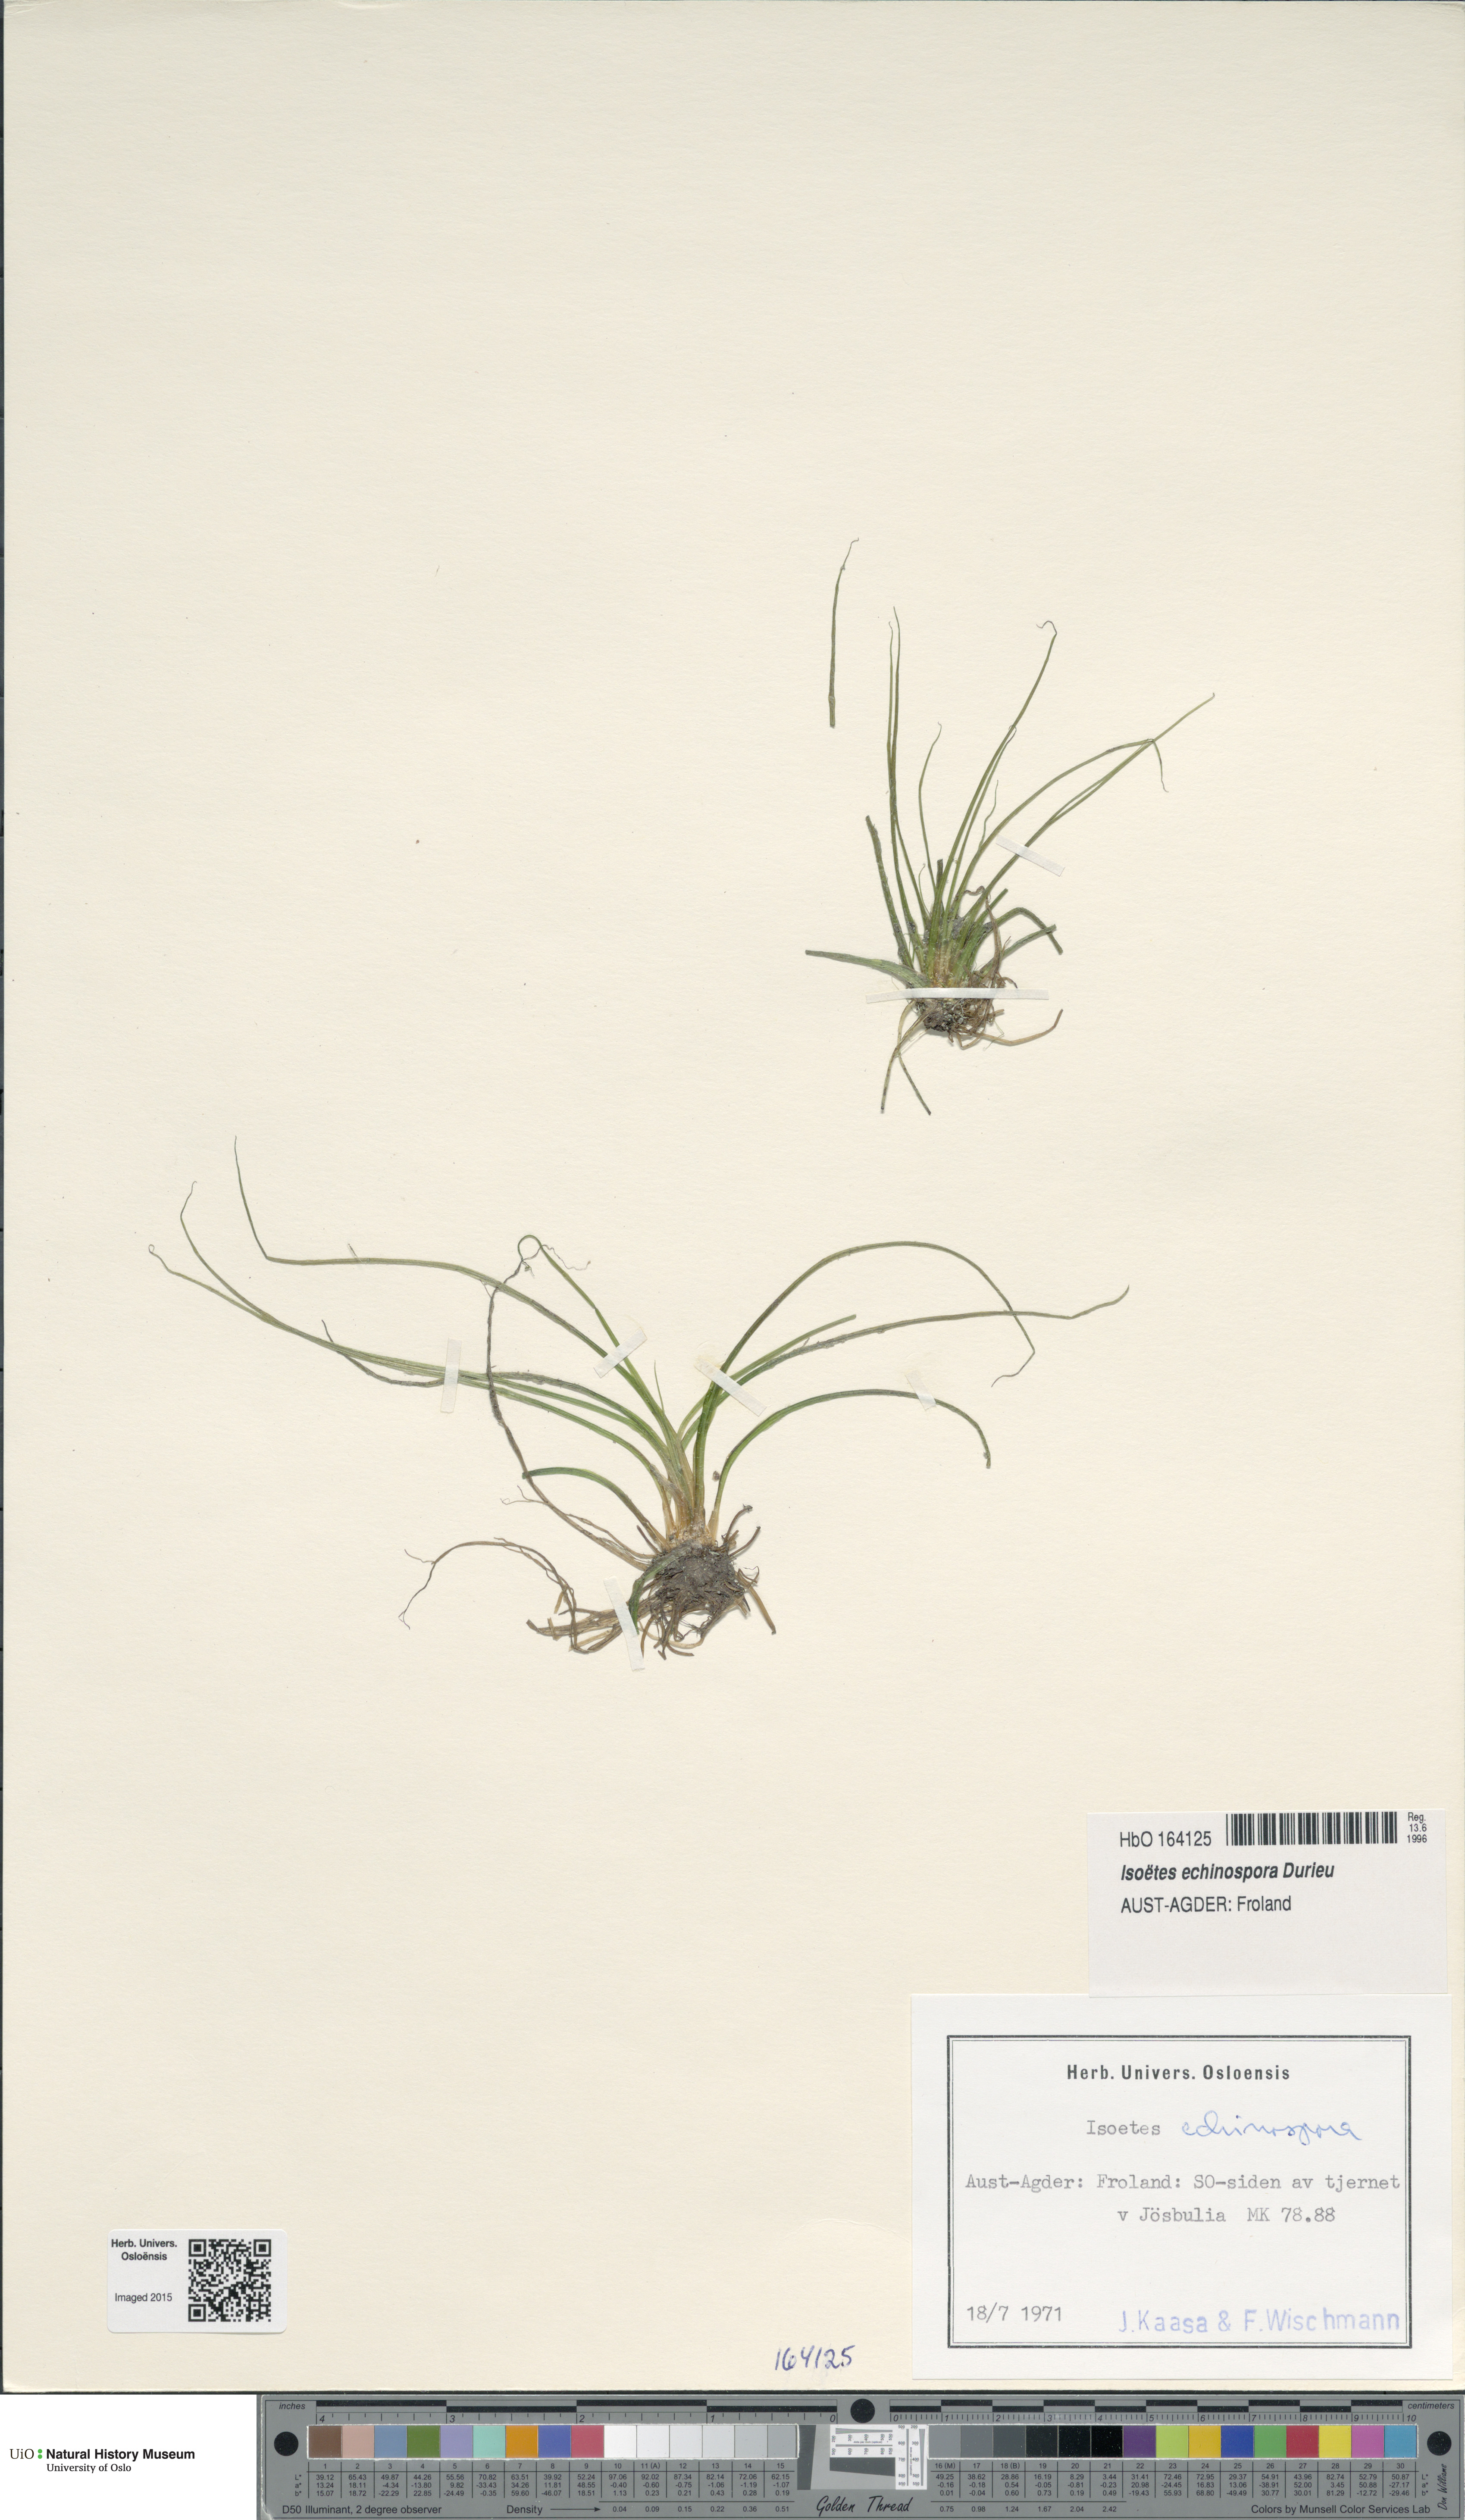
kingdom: Plantae
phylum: Tracheophyta
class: Lycopodiopsida
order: Isoetales
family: Isoetaceae
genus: Isoetes
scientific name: Isoetes echinospora
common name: Spring quillwort
